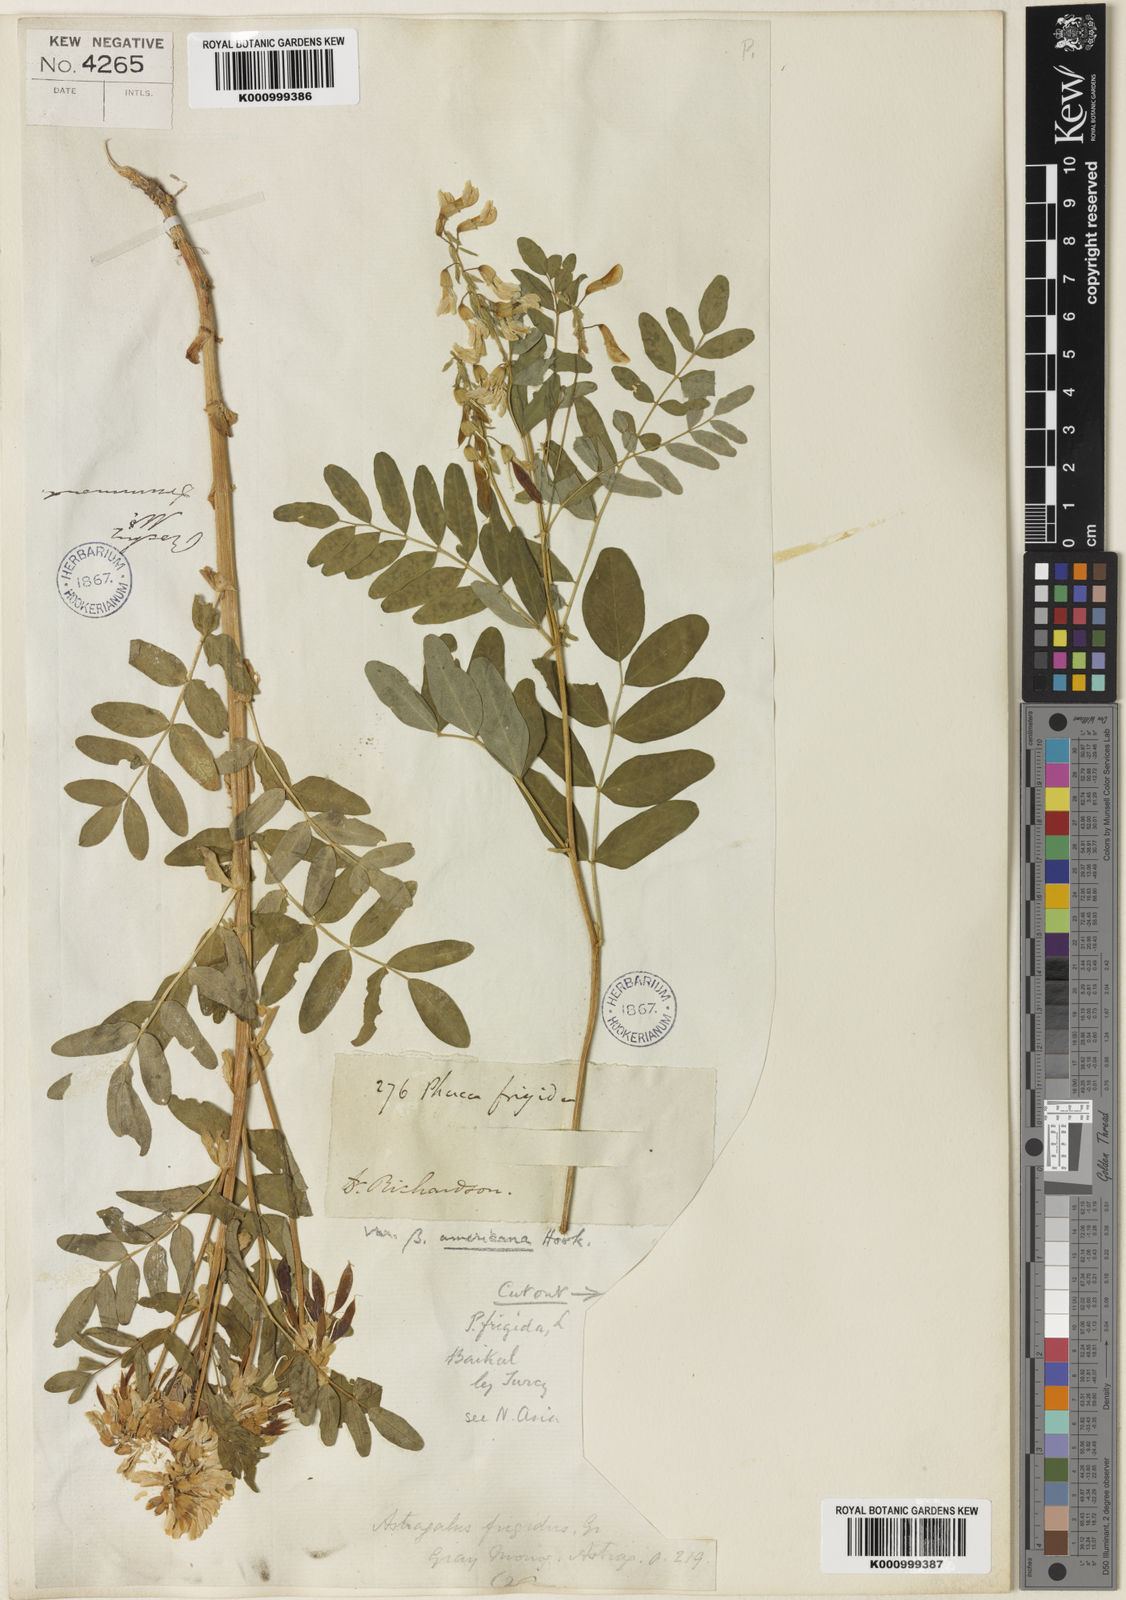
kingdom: Plantae
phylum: Tracheophyta
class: Magnoliopsida
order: Fabales
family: Fabaceae
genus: Astragalus
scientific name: Astragalus frigidus
